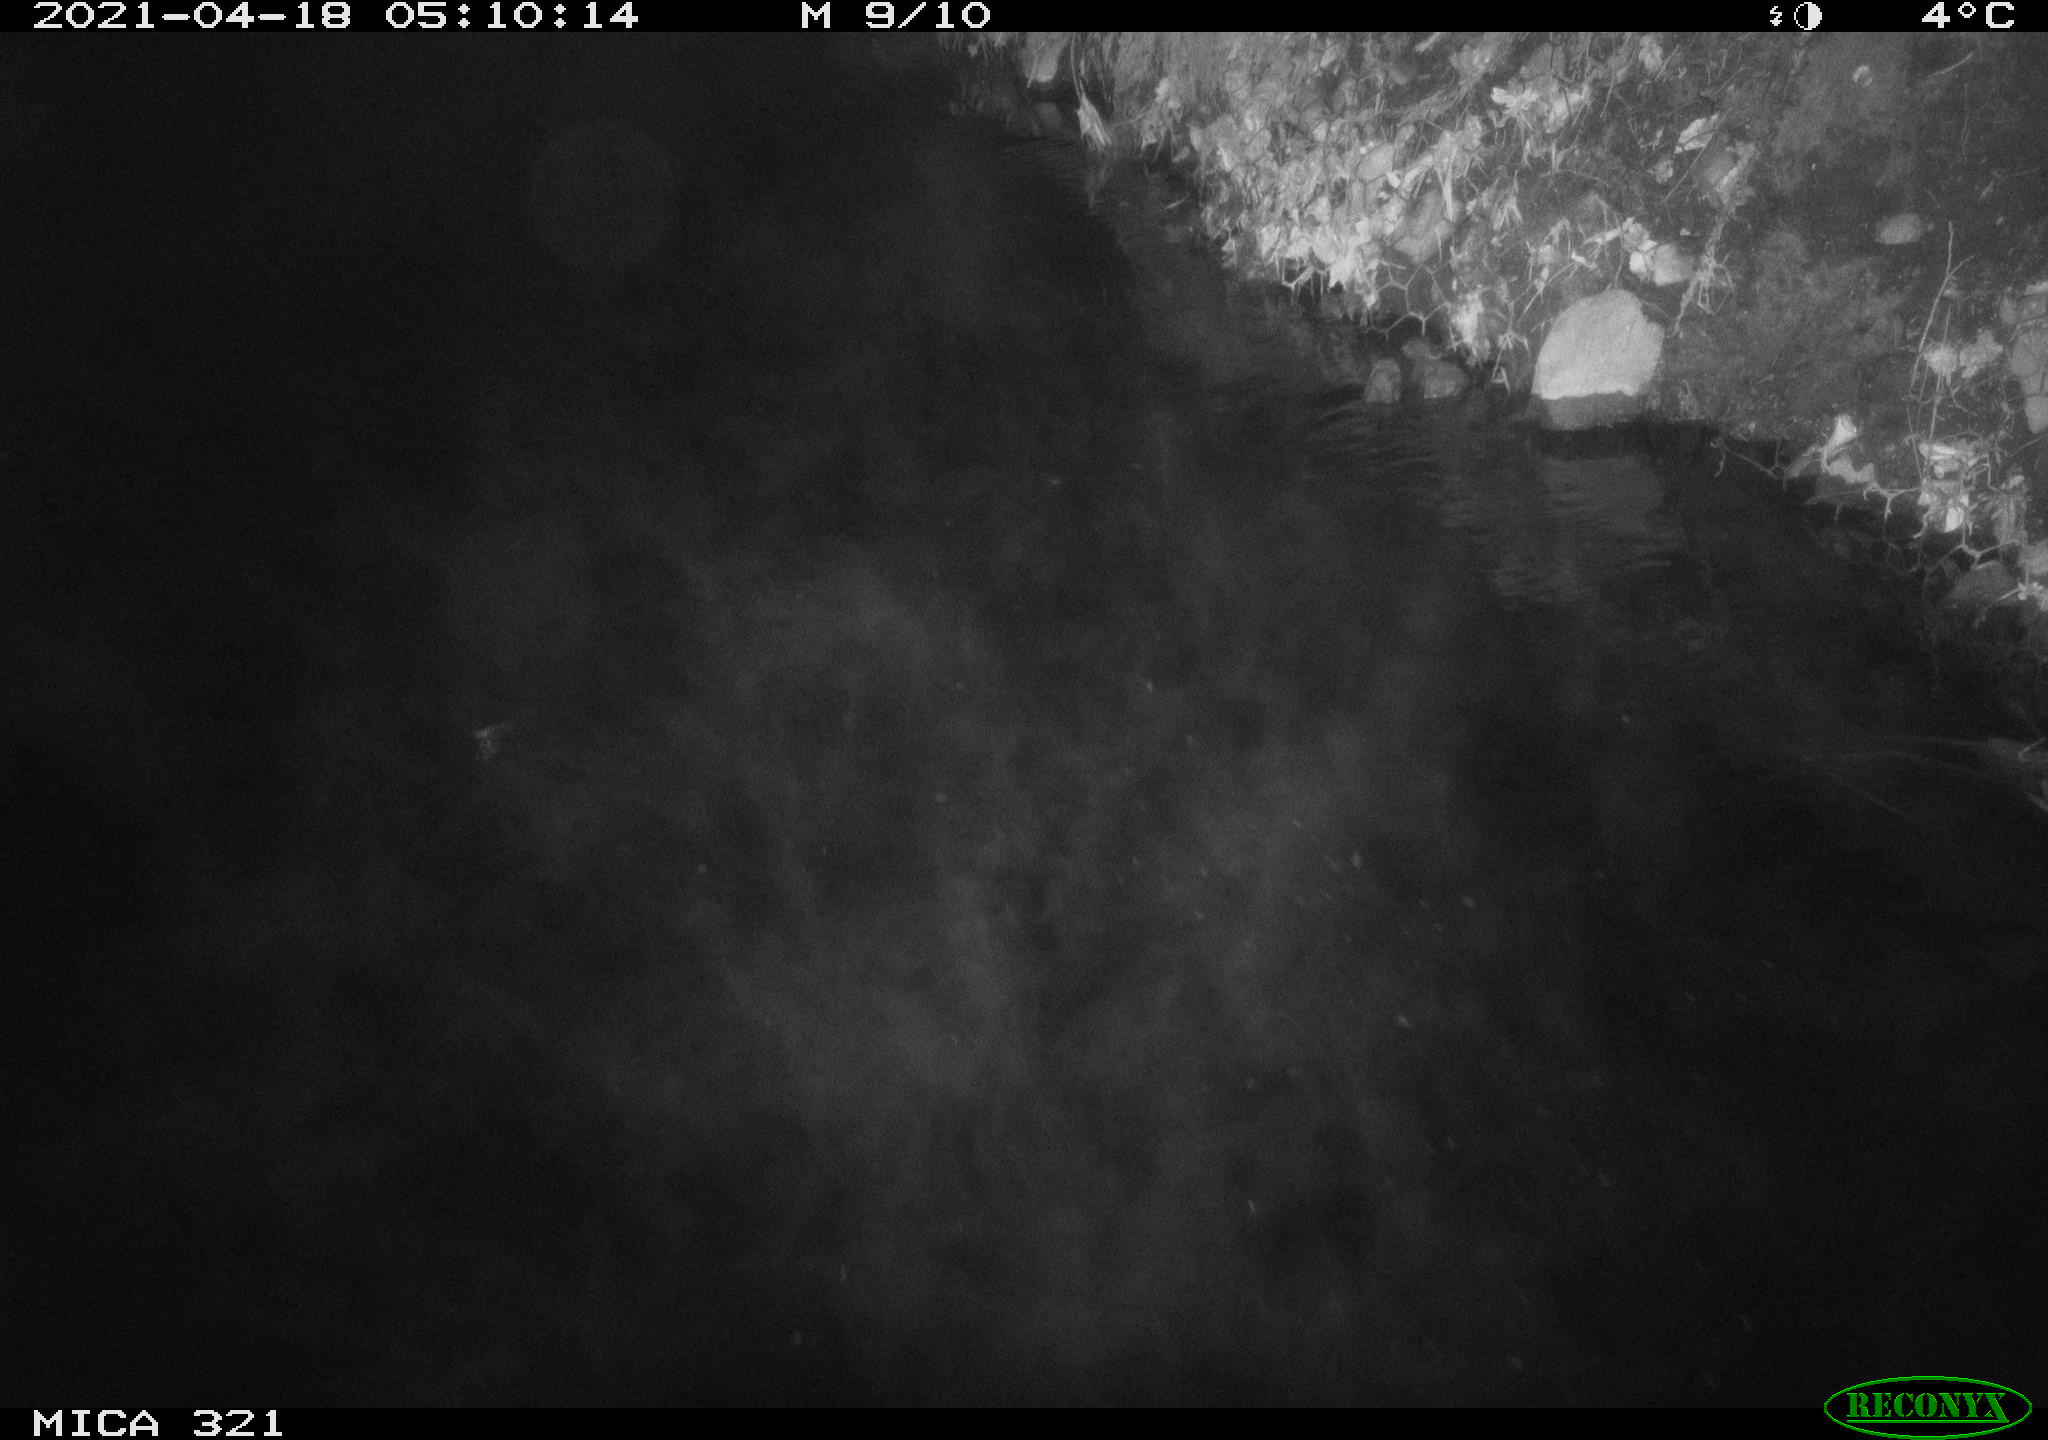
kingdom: Animalia
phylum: Chordata
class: Aves
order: Anseriformes
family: Anatidae
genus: Anas
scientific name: Anas
